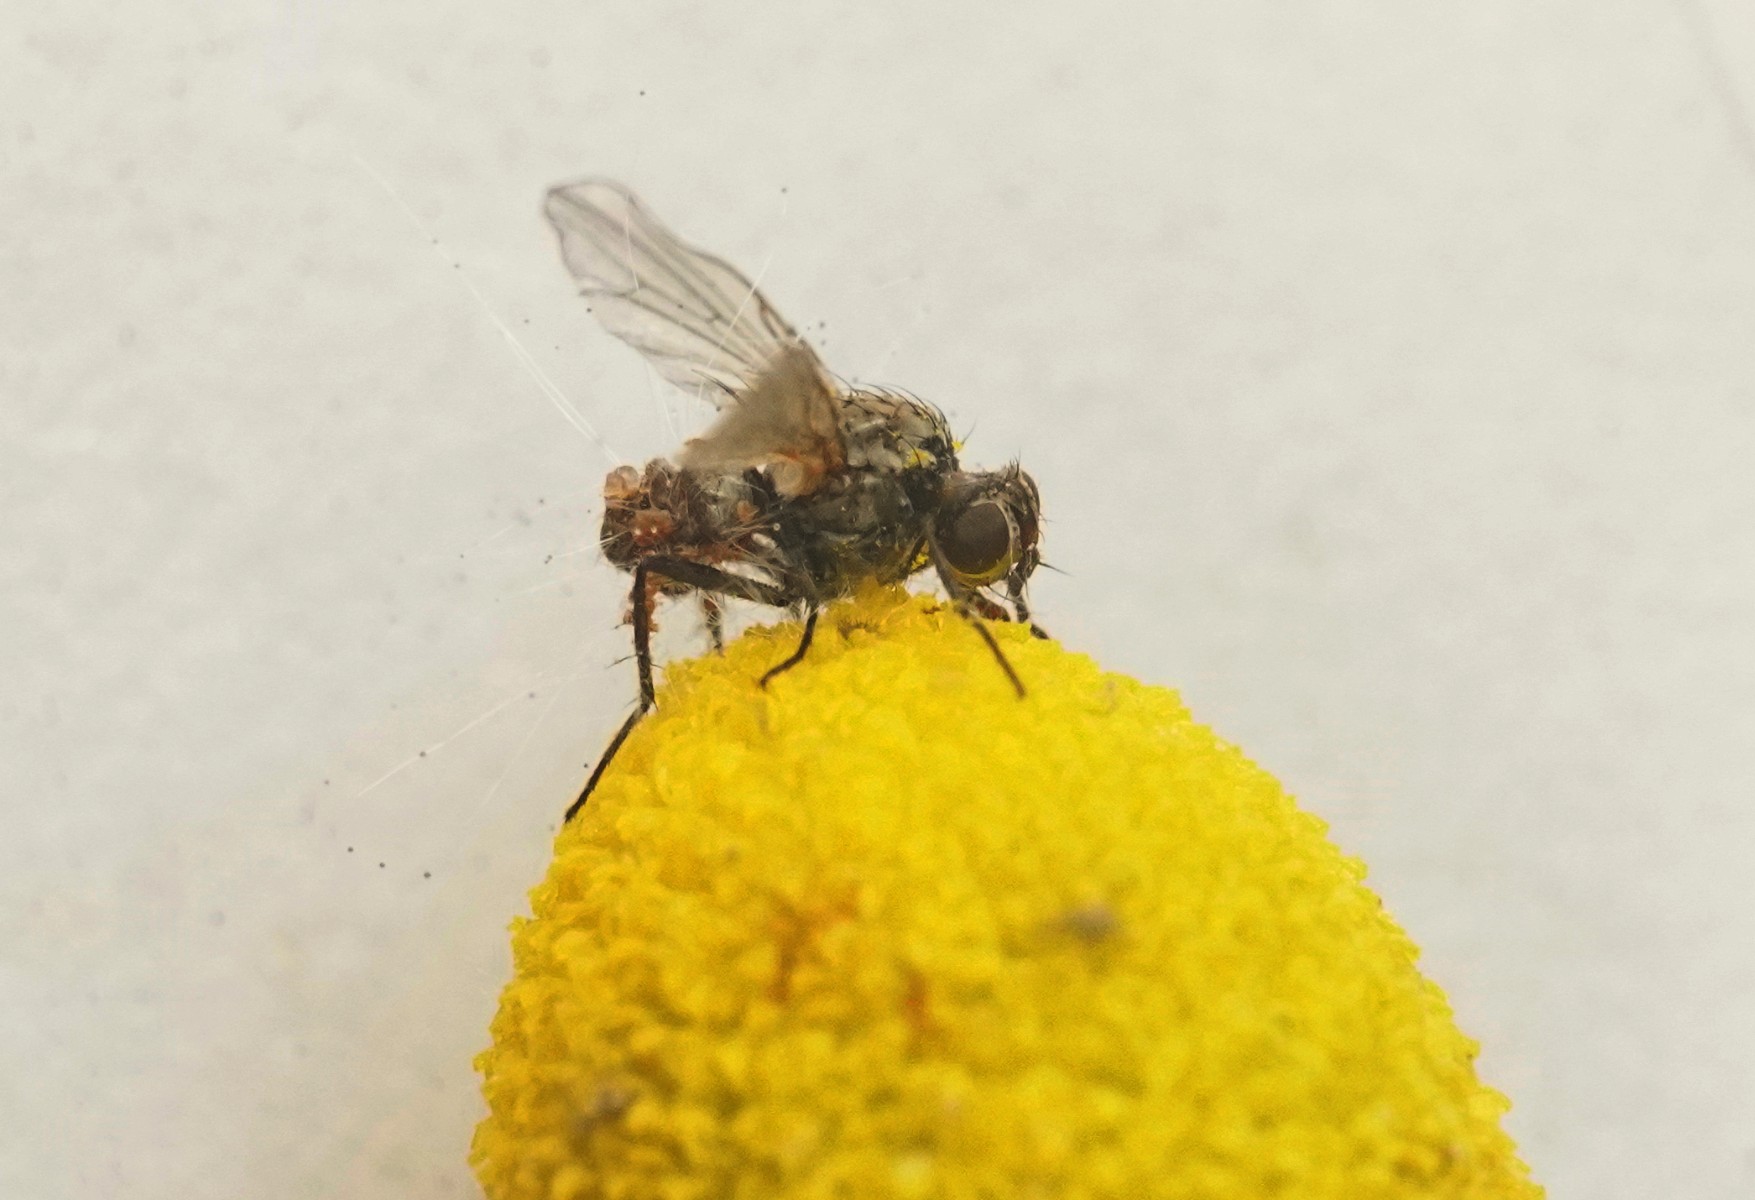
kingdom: Fungi
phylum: Mucoromycota
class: Mucoromycetes
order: Mucorales
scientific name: Mucorales
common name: mugordenen
